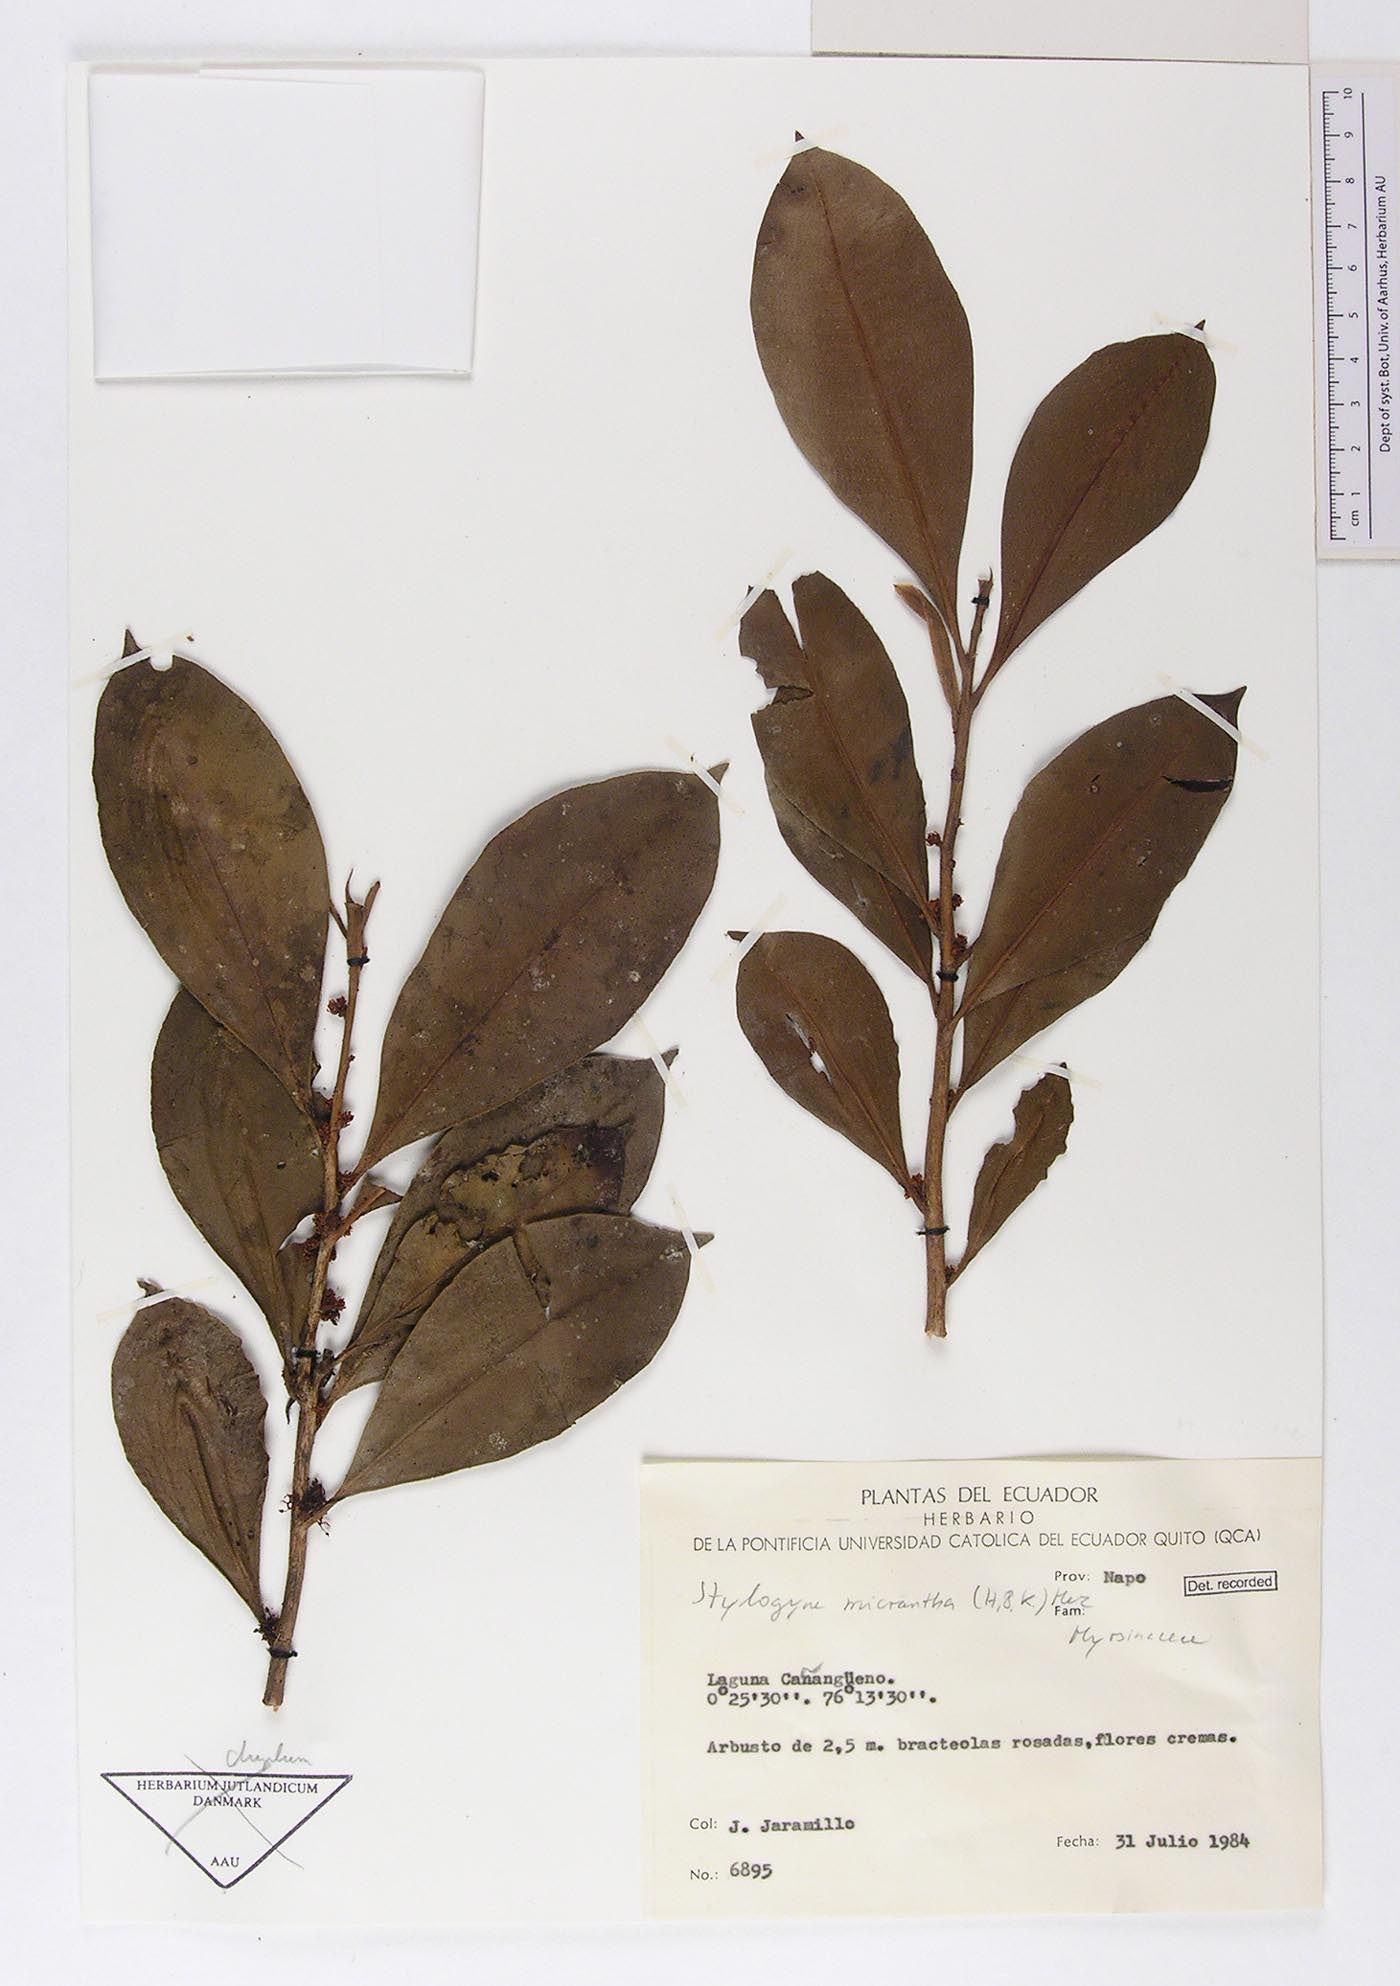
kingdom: Plantae
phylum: Tracheophyta
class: Magnoliopsida
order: Ericales
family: Primulaceae
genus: Stylogyne
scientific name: Stylogyne micrantha
